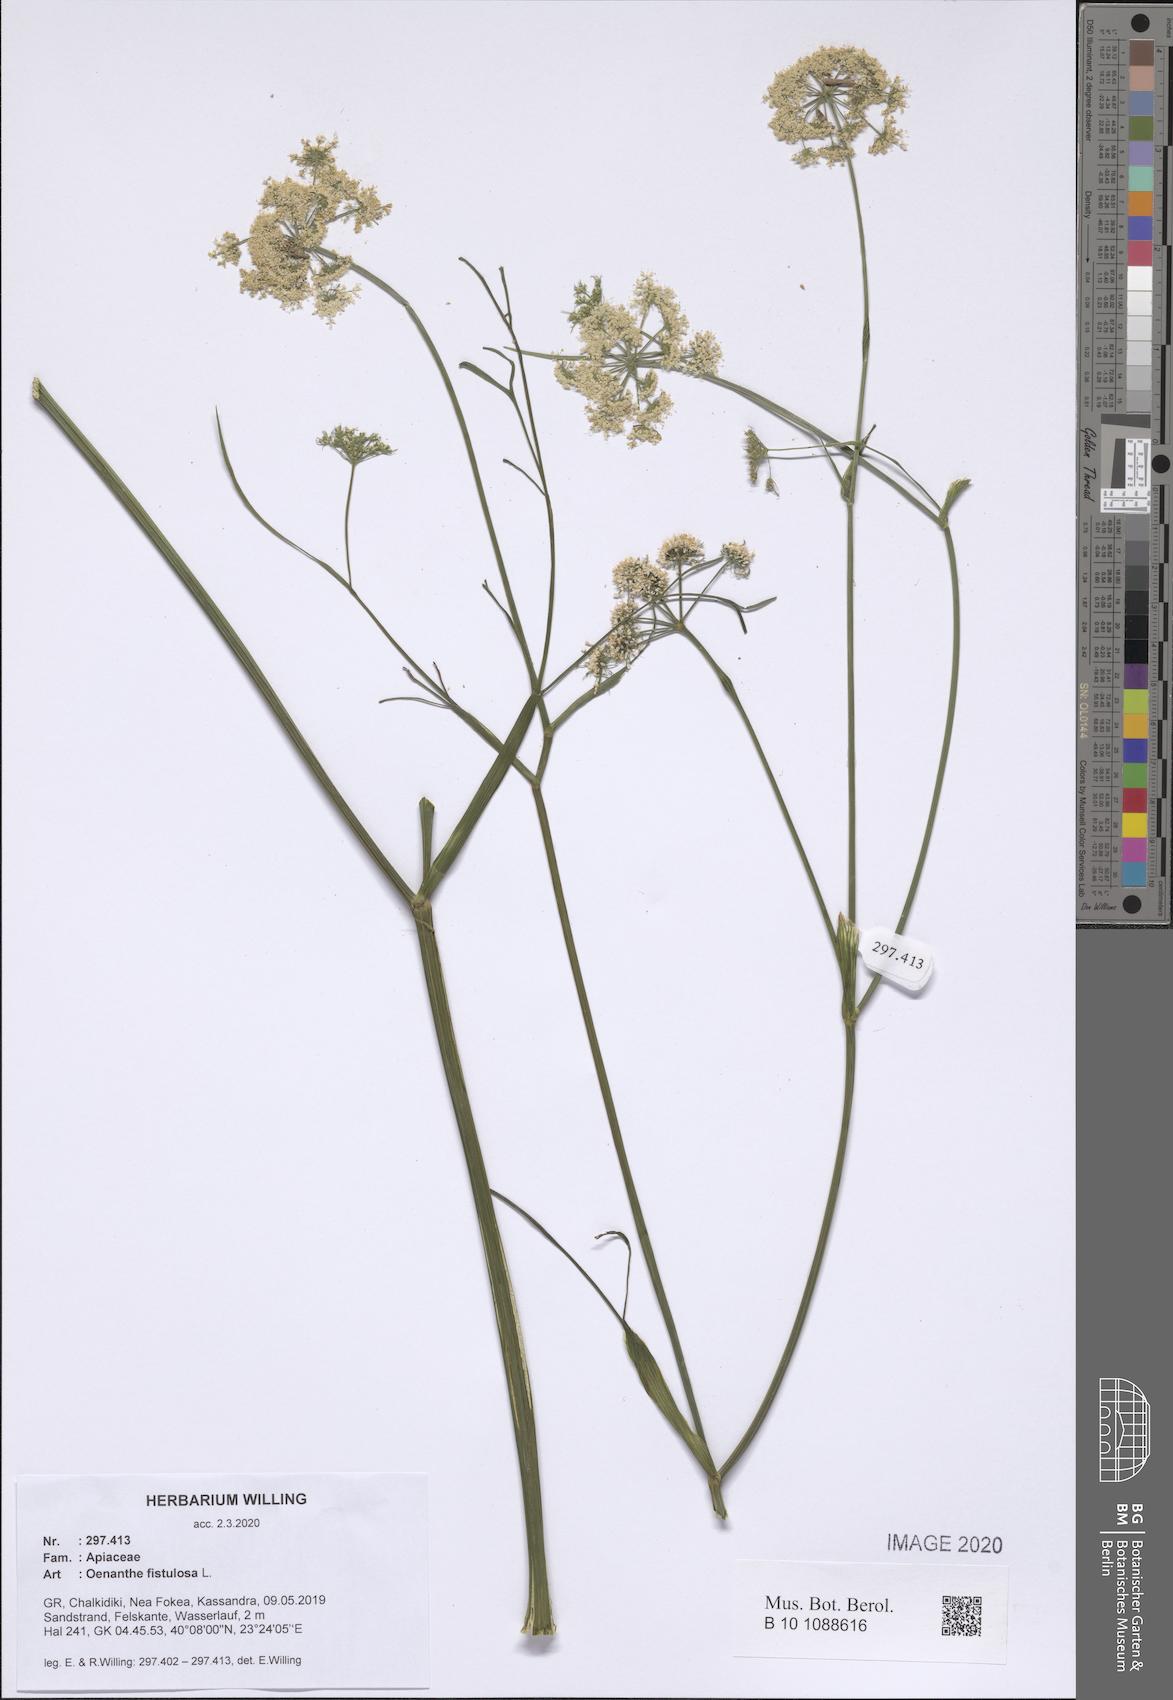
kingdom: Plantae
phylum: Tracheophyta
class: Magnoliopsida
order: Apiales
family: Apiaceae
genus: Oenanthe
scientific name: Oenanthe fistulosa
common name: Tubular water-dropwort
